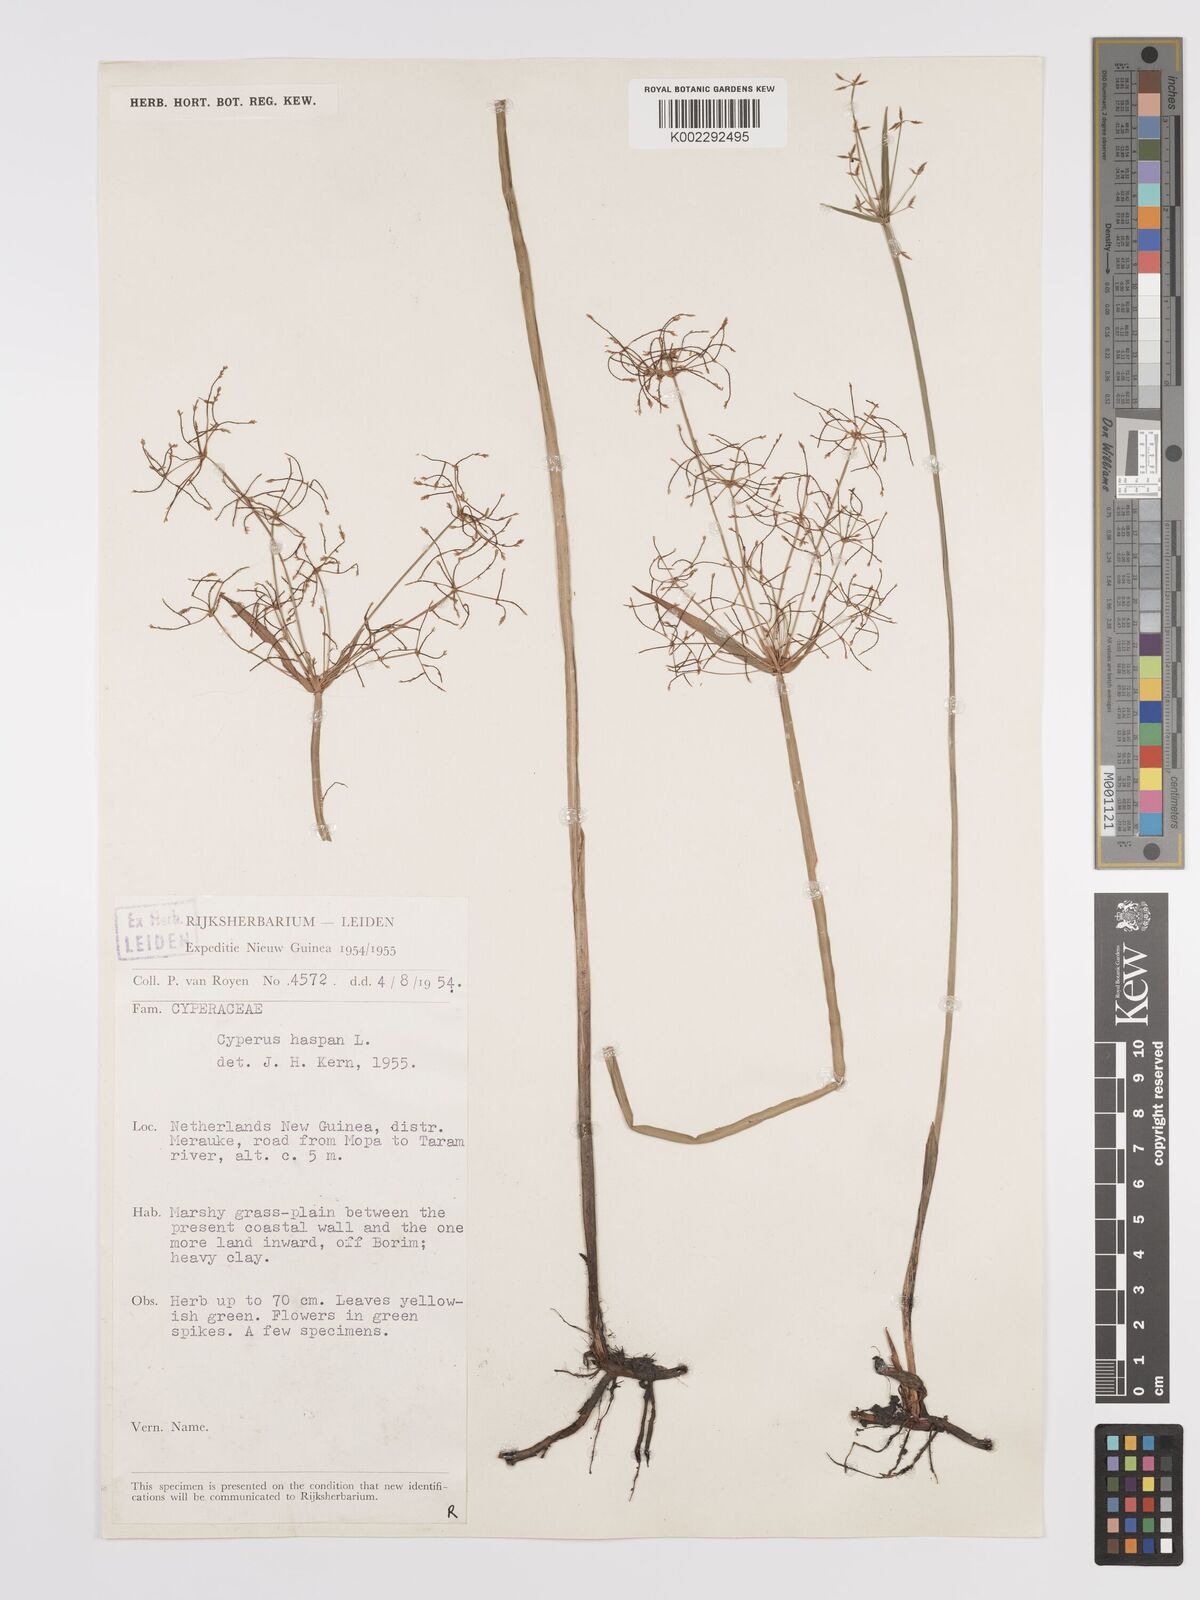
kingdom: Plantae
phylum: Tracheophyta
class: Liliopsida
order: Poales
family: Cyperaceae
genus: Cyperus
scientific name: Cyperus haspan
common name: Haspan flatsedge
